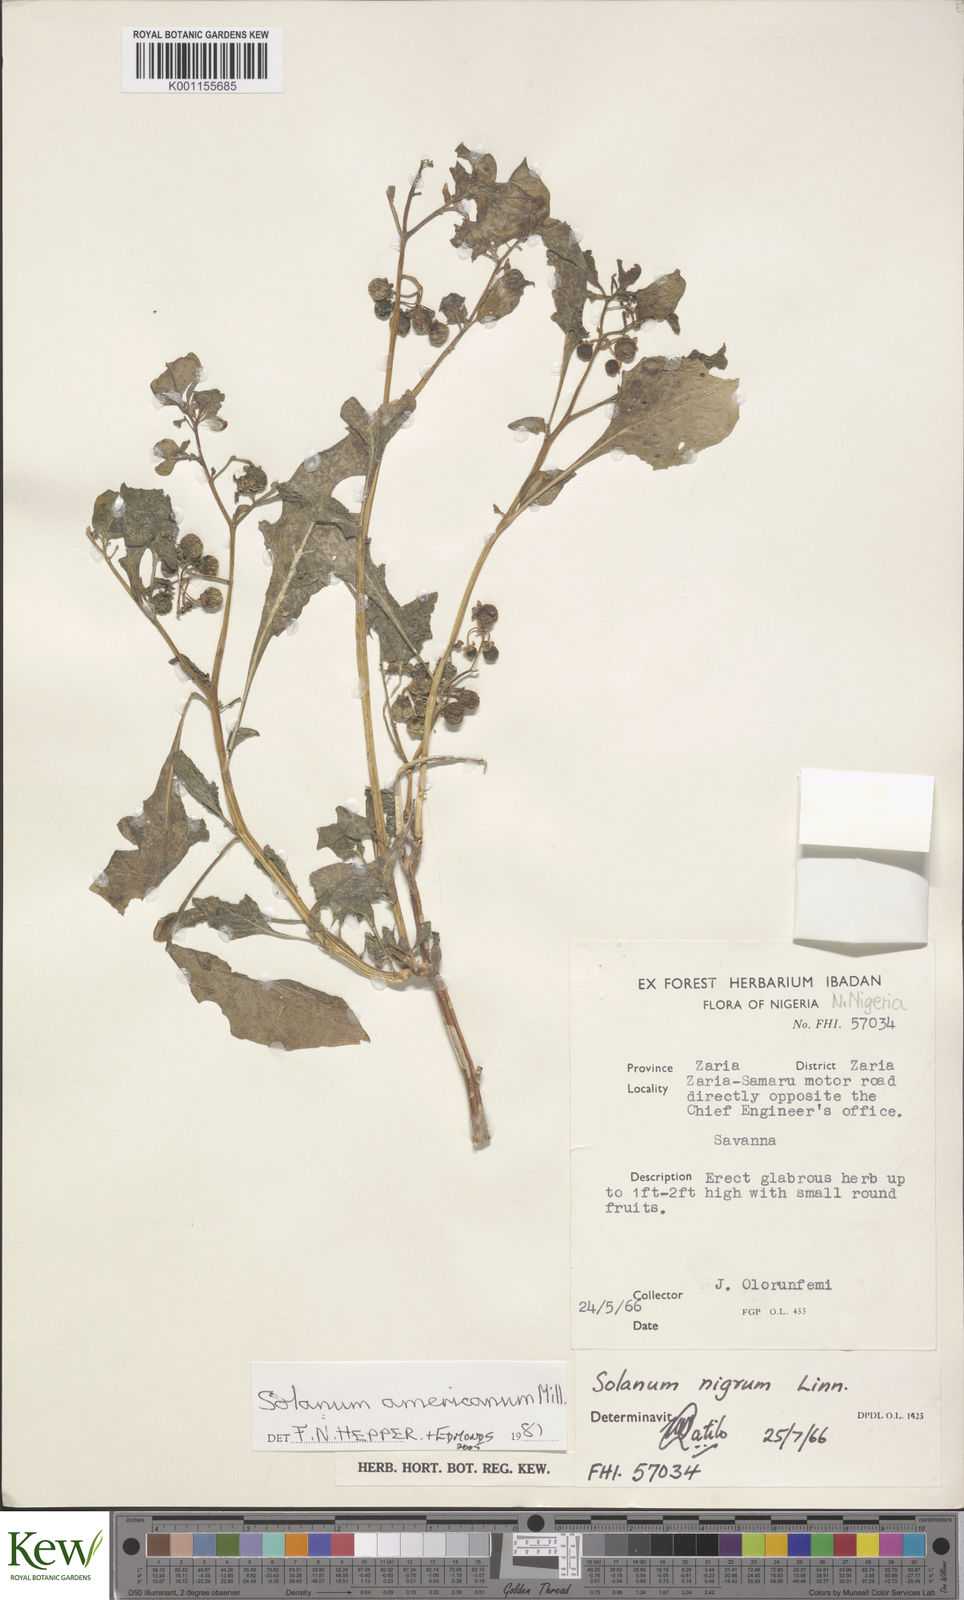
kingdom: Plantae
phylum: Tracheophyta
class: Magnoliopsida
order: Solanales
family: Solanaceae
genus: Solanum
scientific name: Solanum scabrum
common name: Garden-huckleberry
